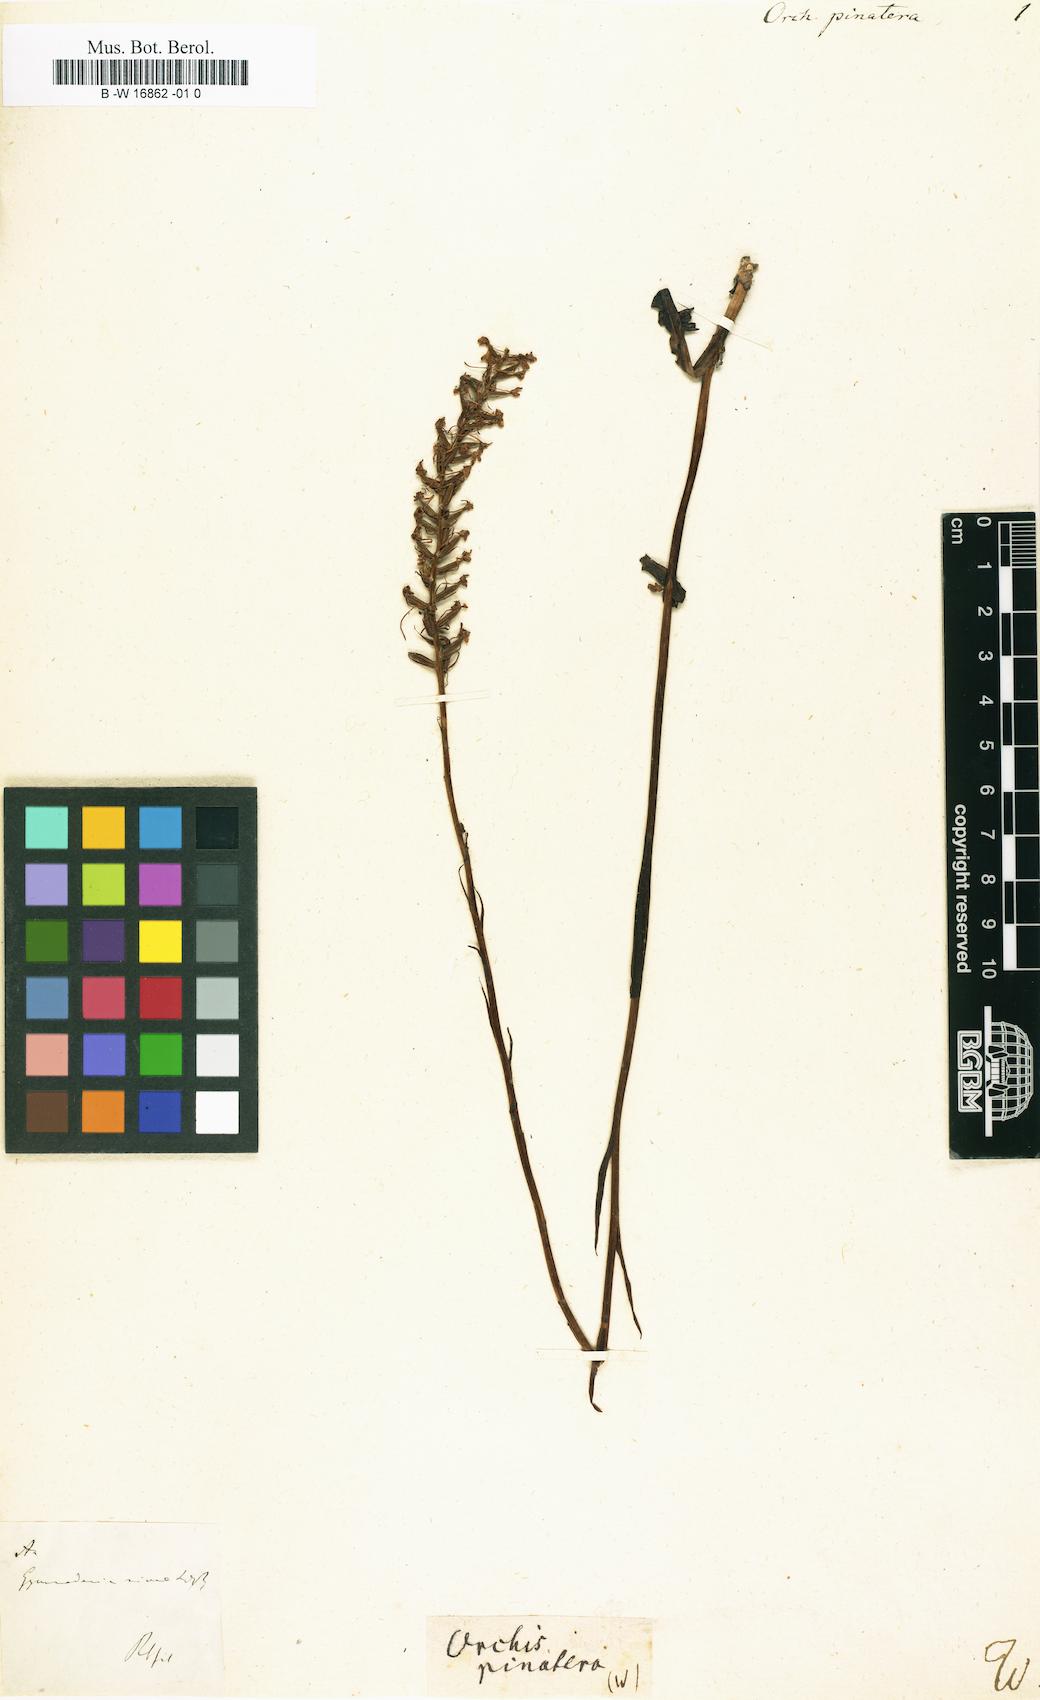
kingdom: Plantae
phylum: Tracheophyta
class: Liliopsida
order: Asparagales
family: Orchidaceae
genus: Orchis
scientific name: Orchis mascula
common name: Early-purple orchid
